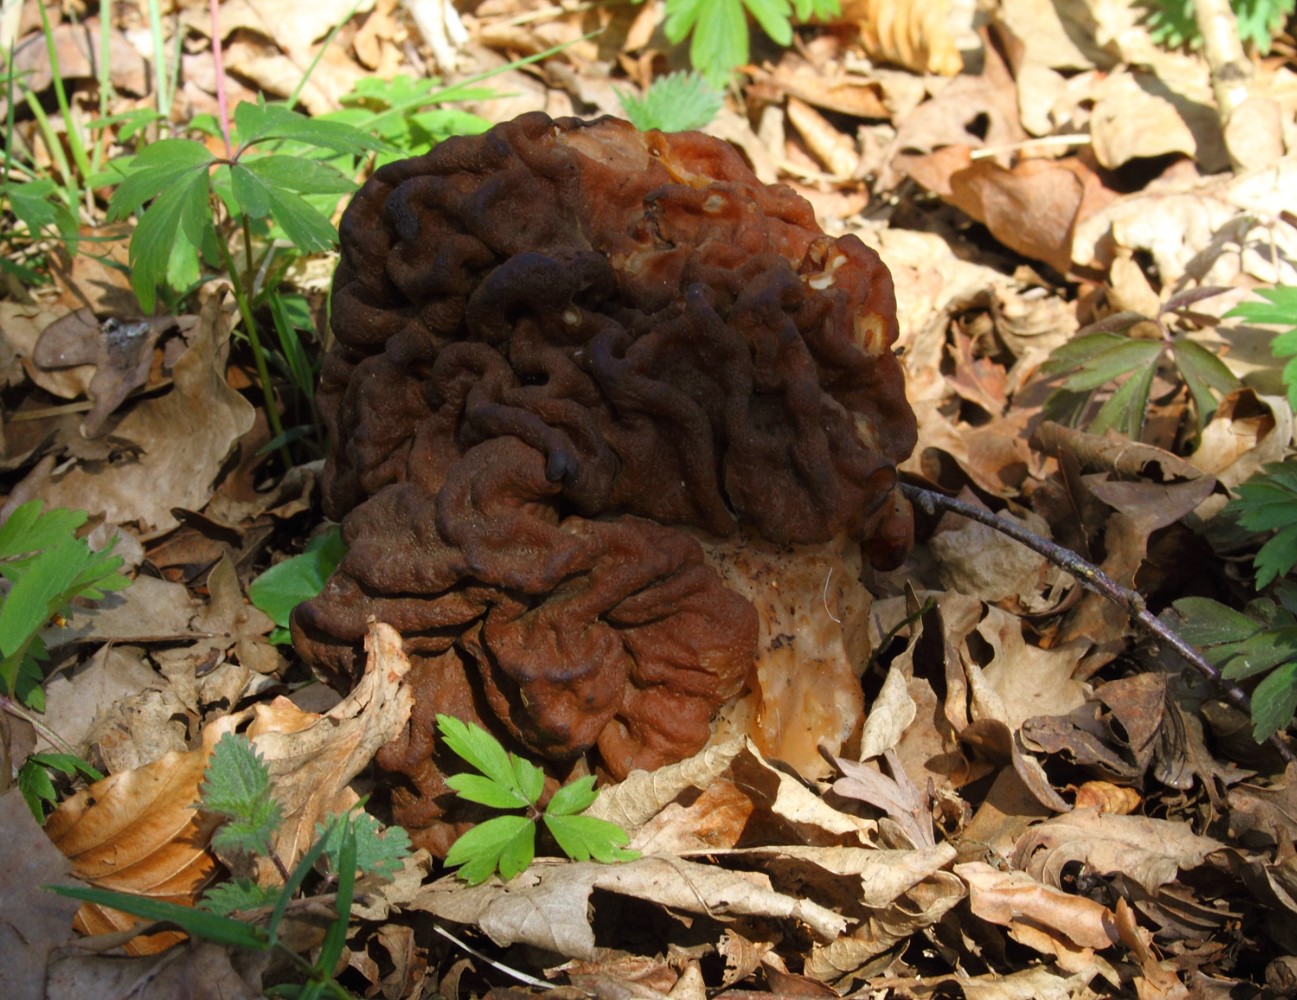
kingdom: Fungi
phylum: Ascomycota
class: Pezizomycetes
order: Pezizales
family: Discinaceae
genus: Gyromitra
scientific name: Gyromitra gigas
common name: kæmpe-stenmorkel
